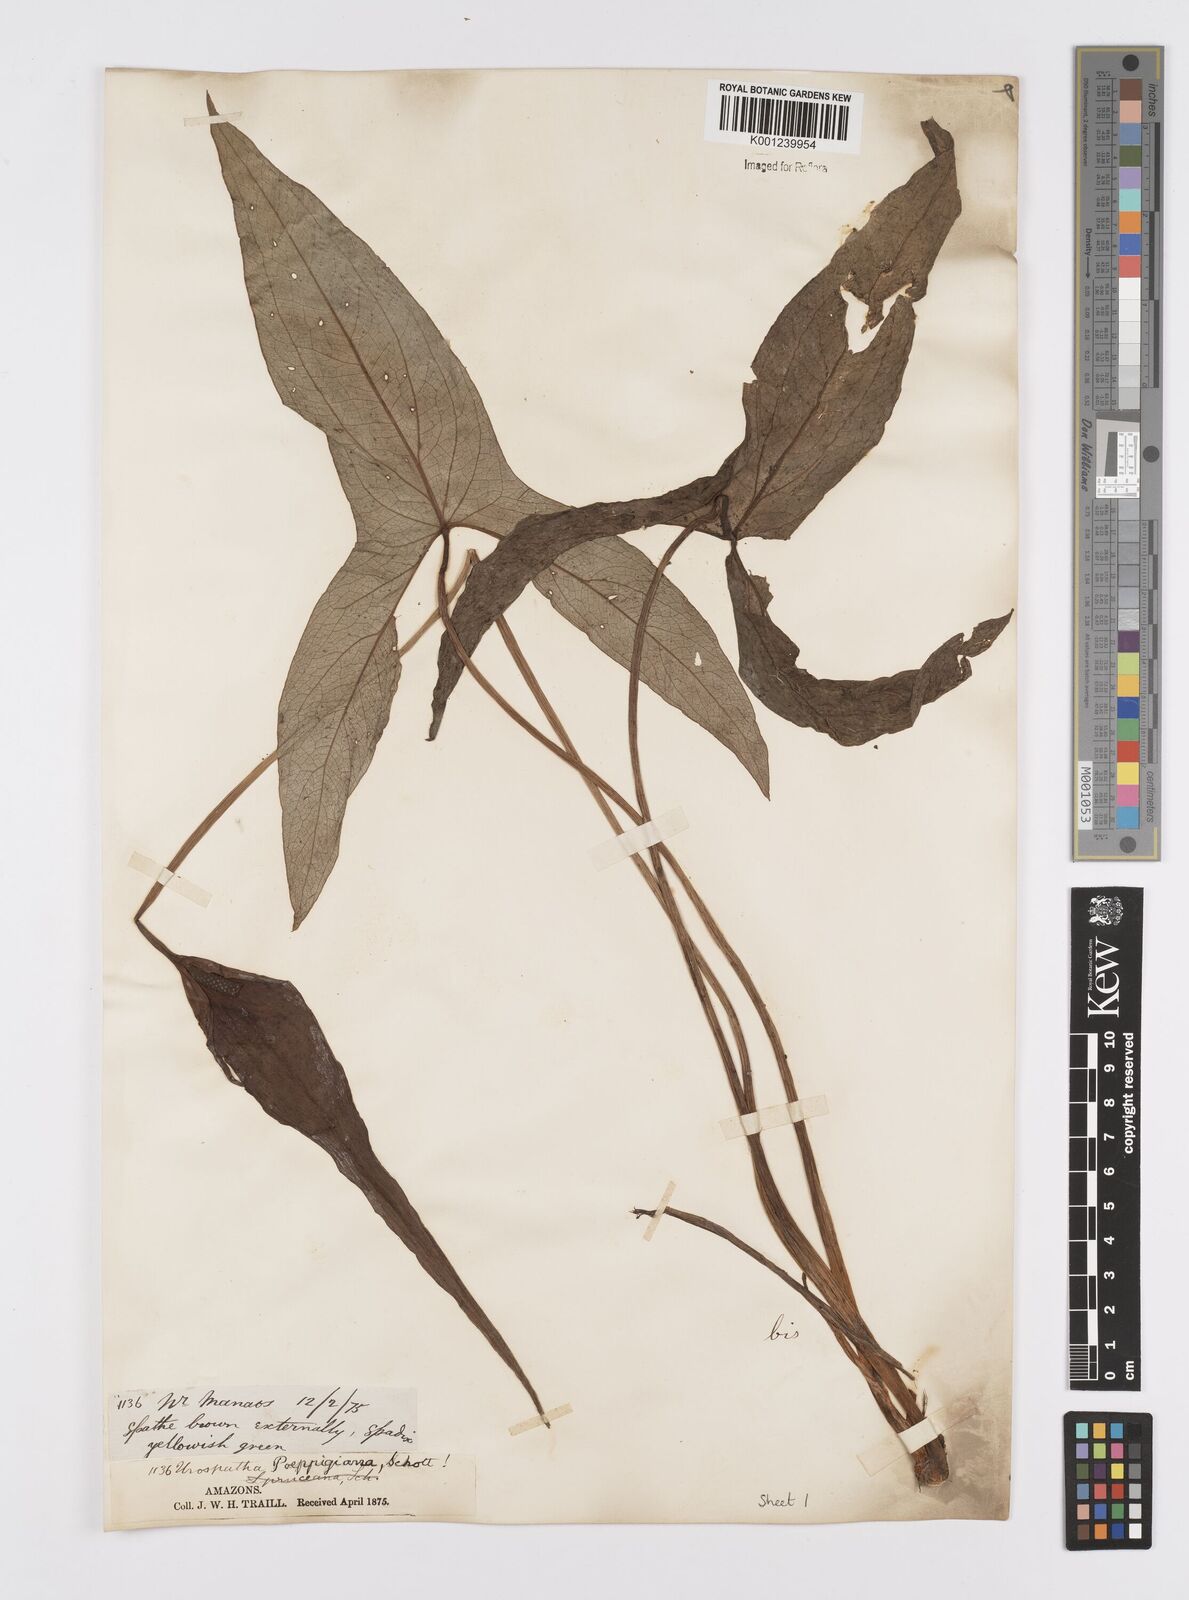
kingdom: Plantae
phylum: Tracheophyta
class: Liliopsida
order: Alismatales
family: Araceae
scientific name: Araceae
